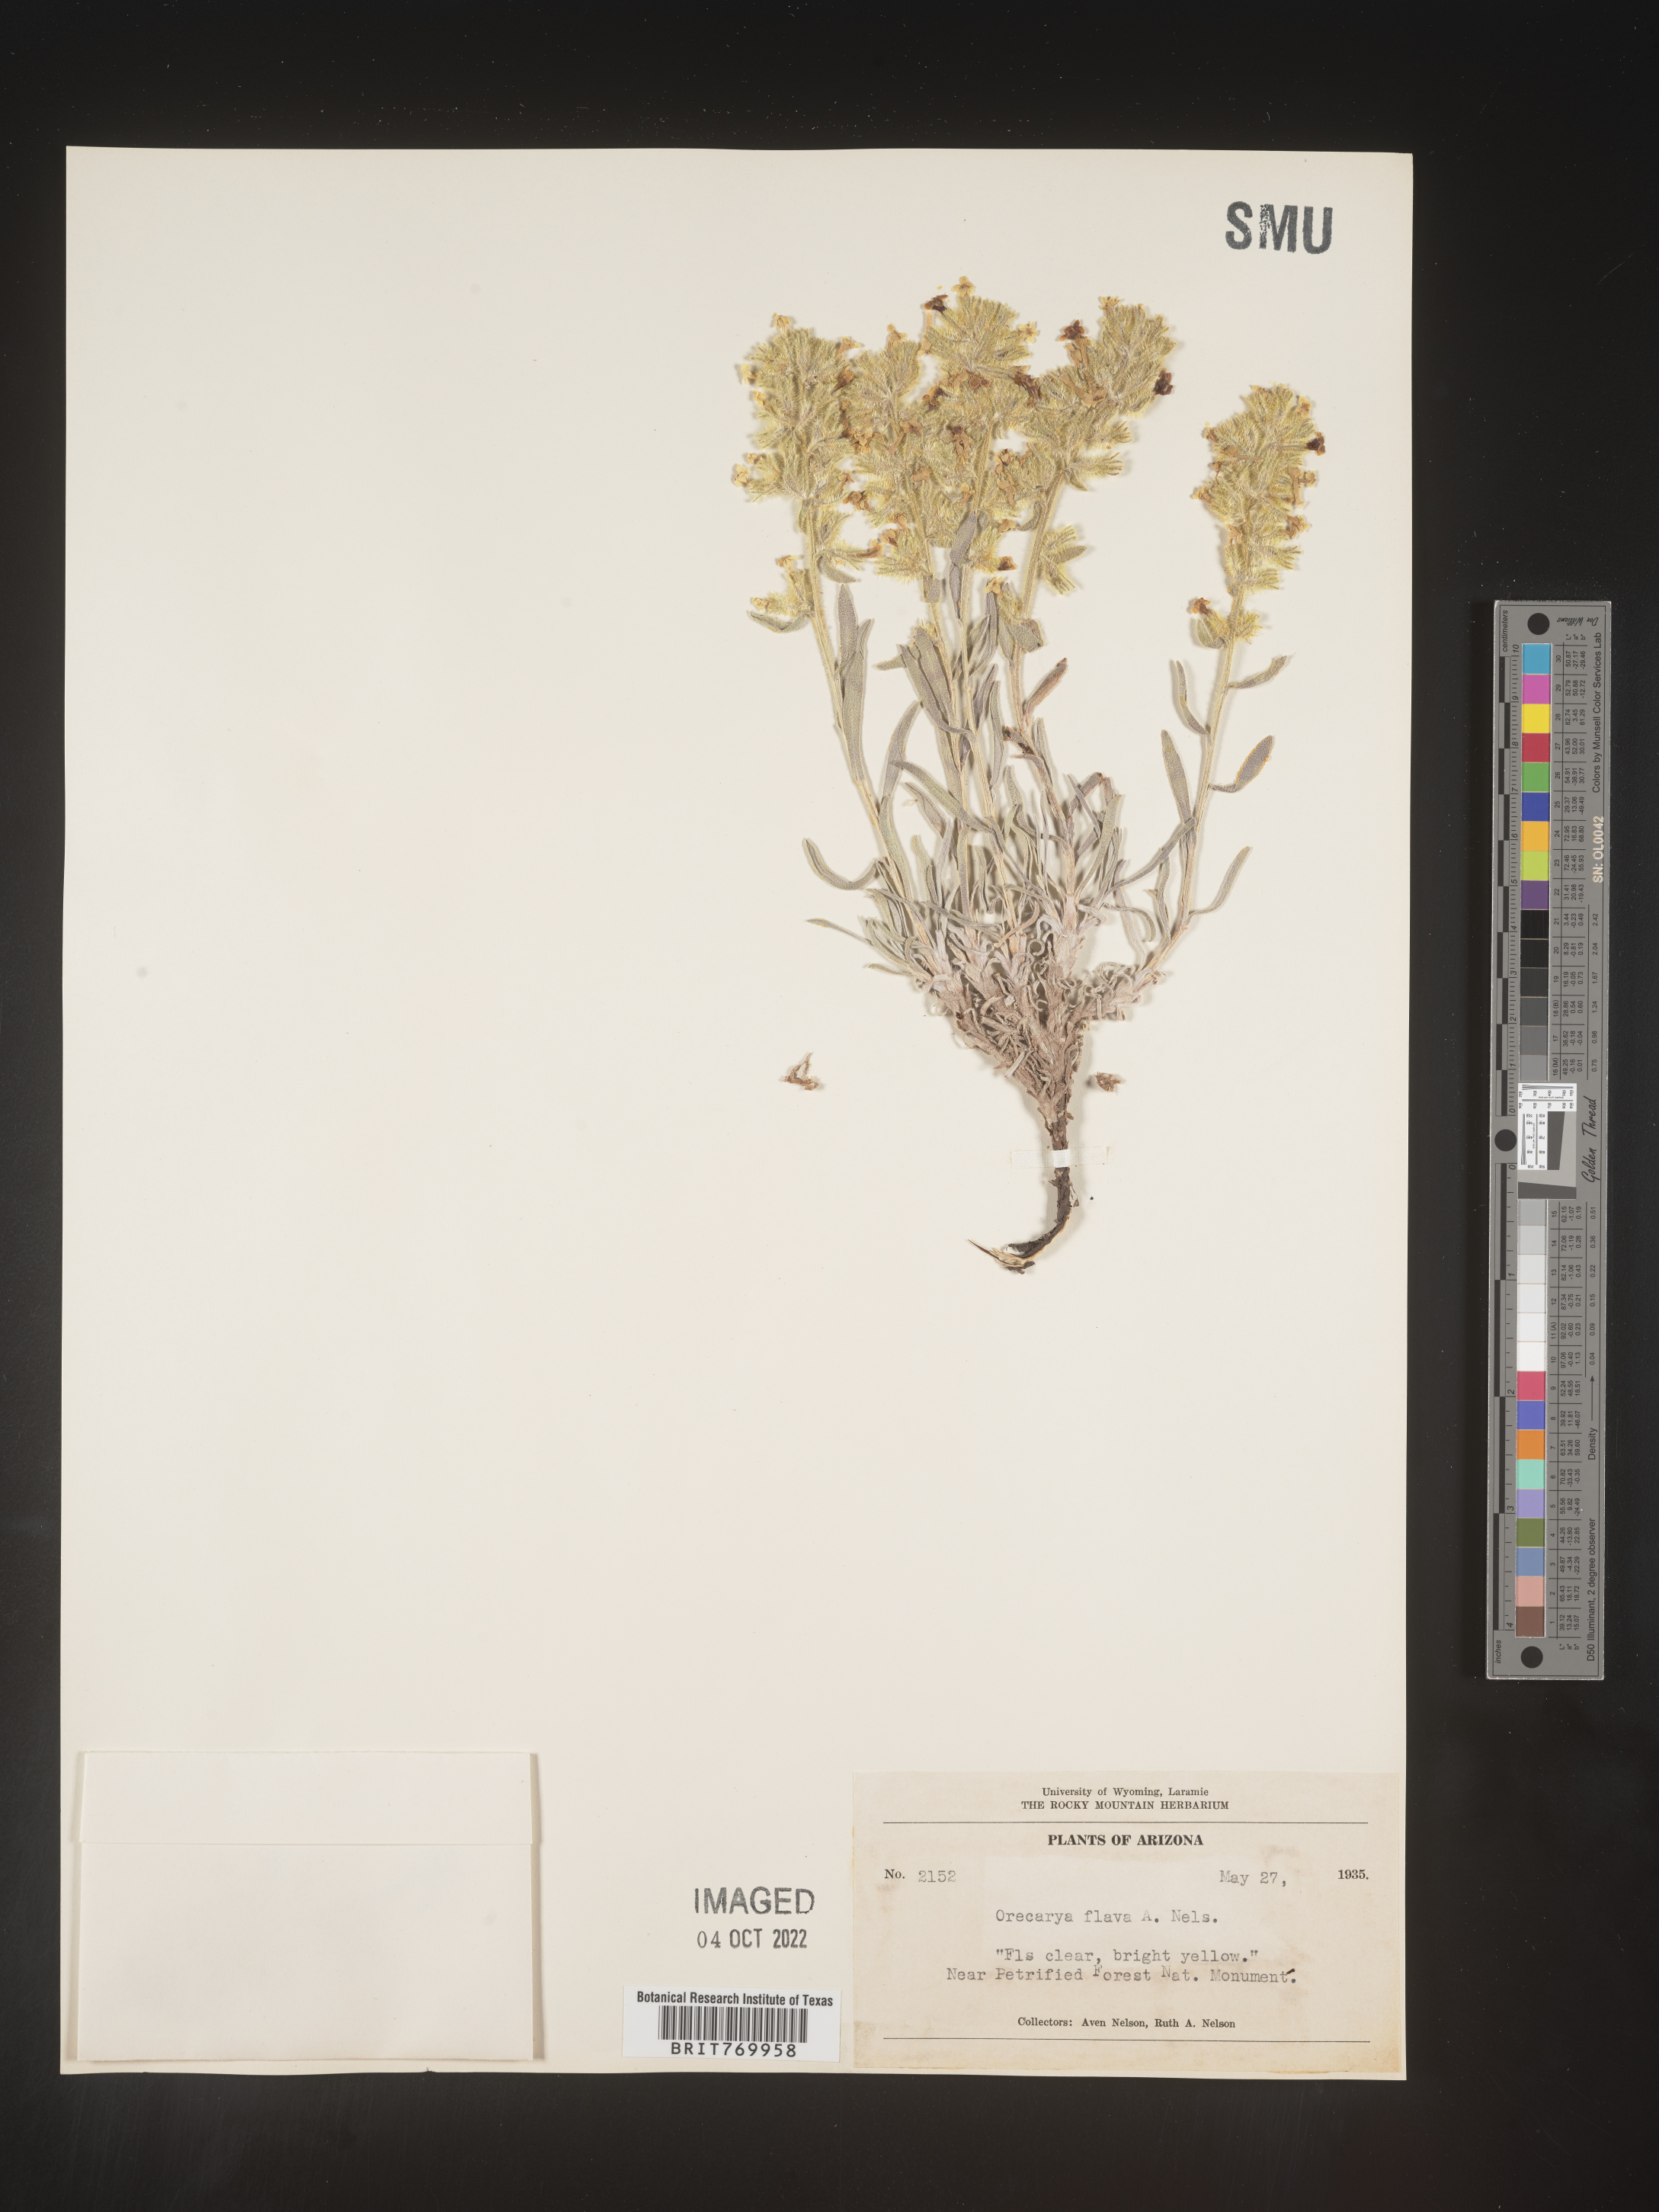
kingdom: Plantae
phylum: Tracheophyta
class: Magnoliopsida
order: Boraginales
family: Boraginaceae
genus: Oreocarya
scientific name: Oreocarya
